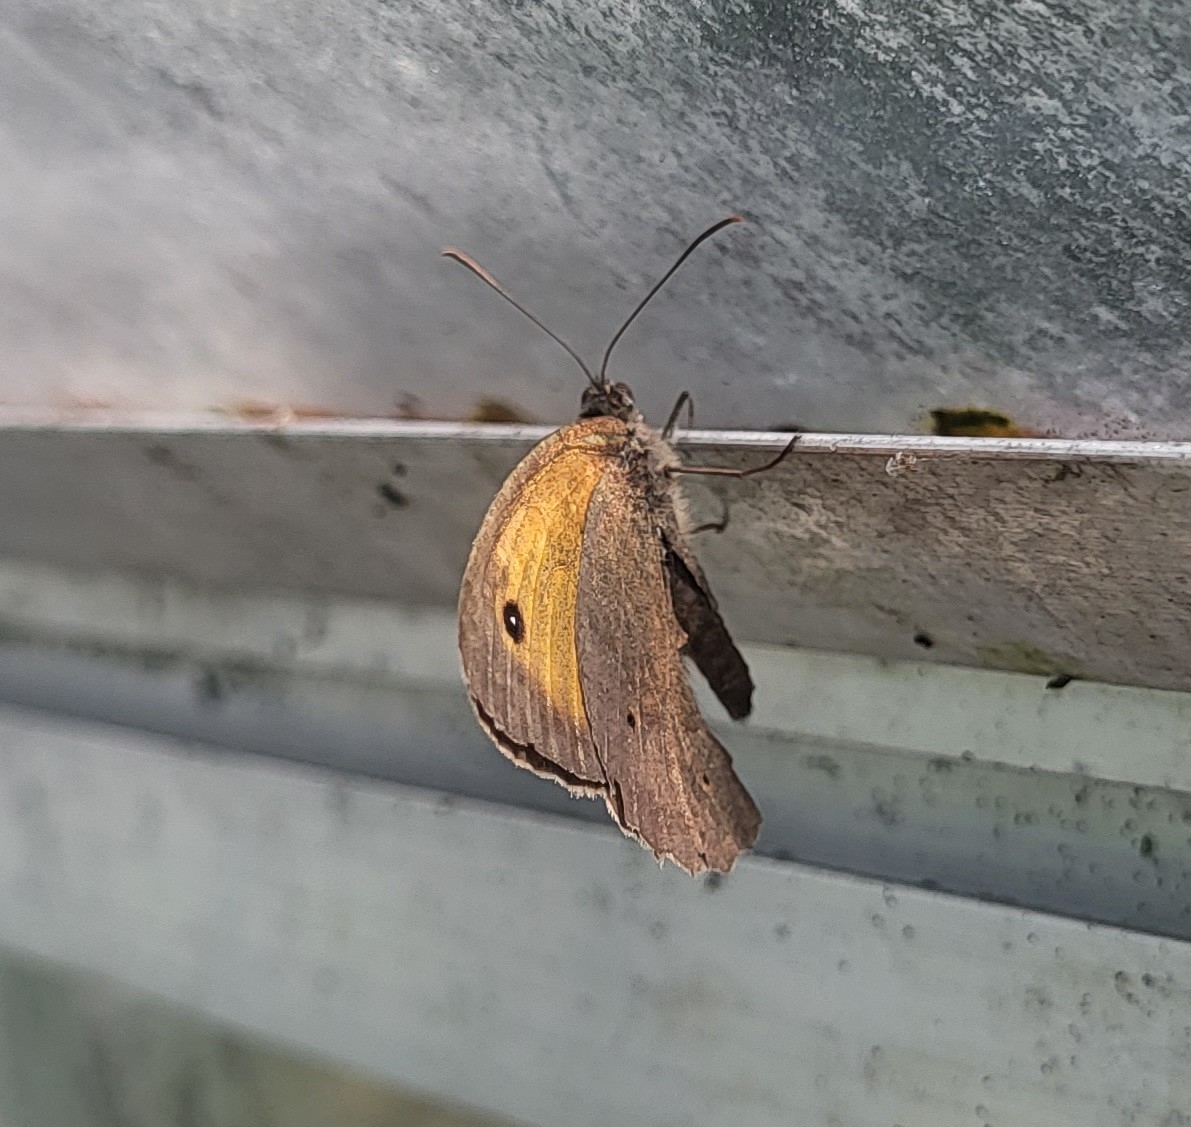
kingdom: Animalia
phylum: Arthropoda
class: Insecta
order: Lepidoptera
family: Nymphalidae
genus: Maniola
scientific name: Maniola jurtina
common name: Græsrandøje
